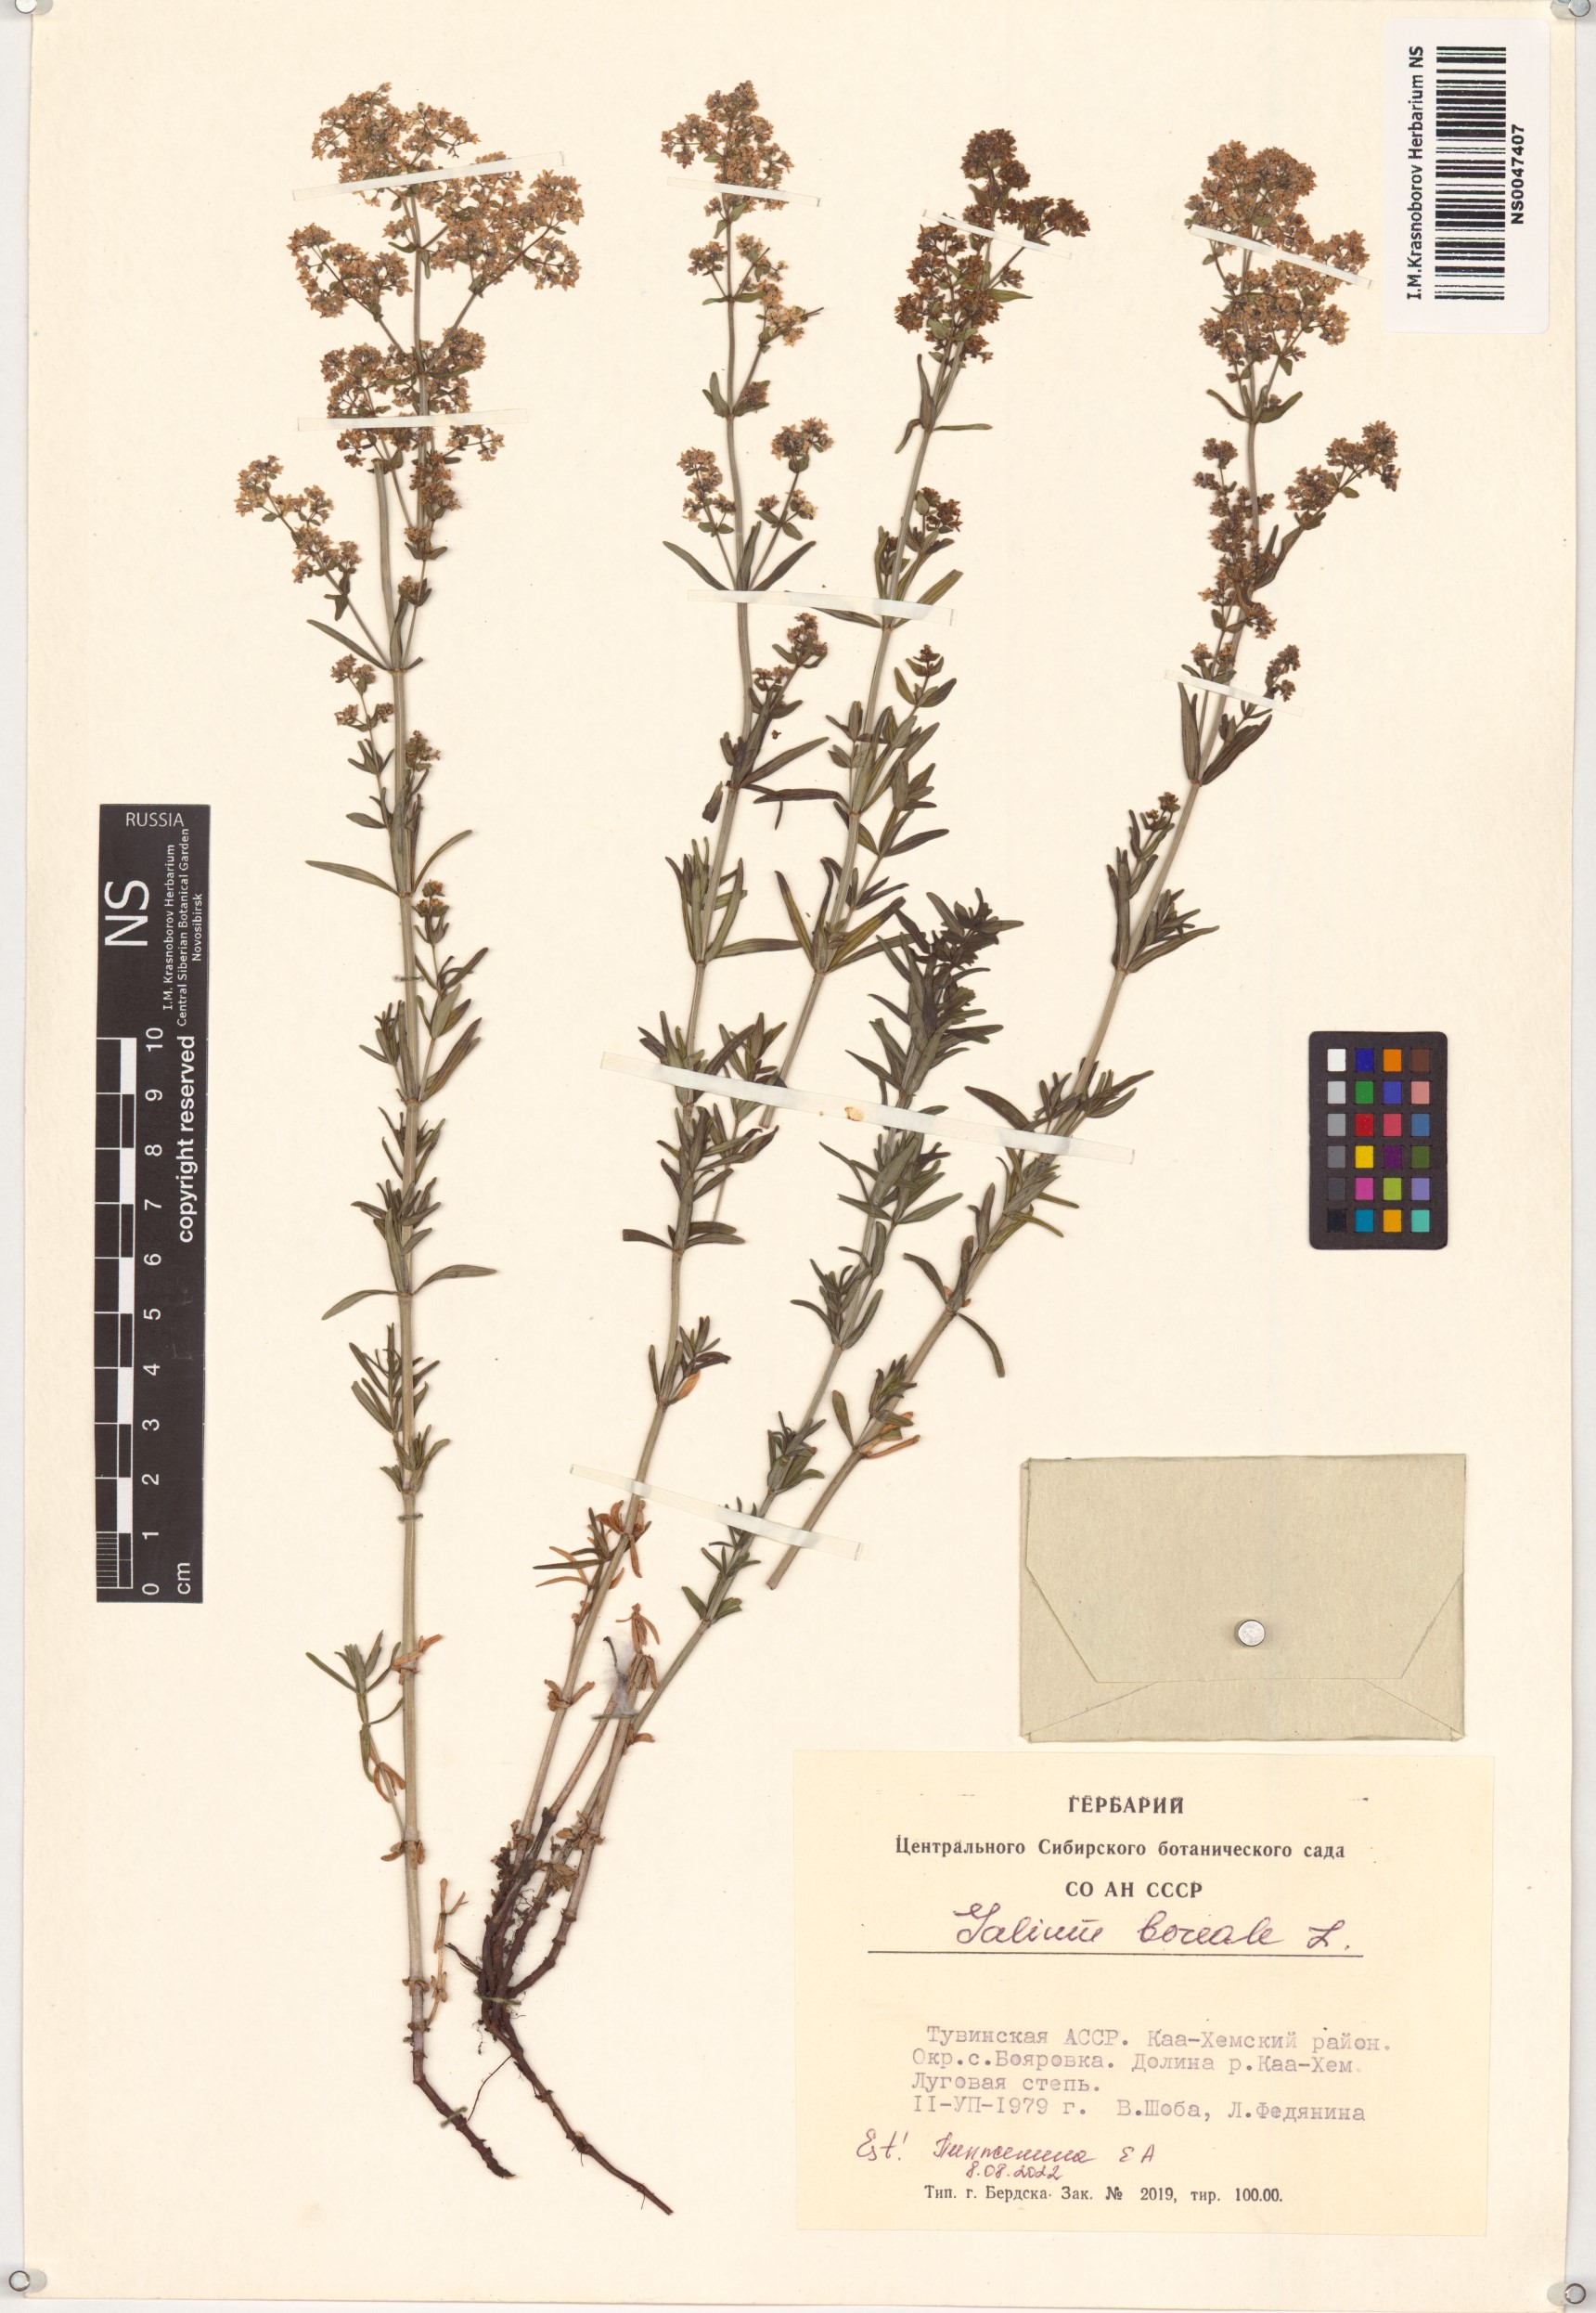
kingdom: Plantae
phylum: Tracheophyta
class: Magnoliopsida
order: Gentianales
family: Rubiaceae
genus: Galium
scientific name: Galium boreale
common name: Northern bedstraw
